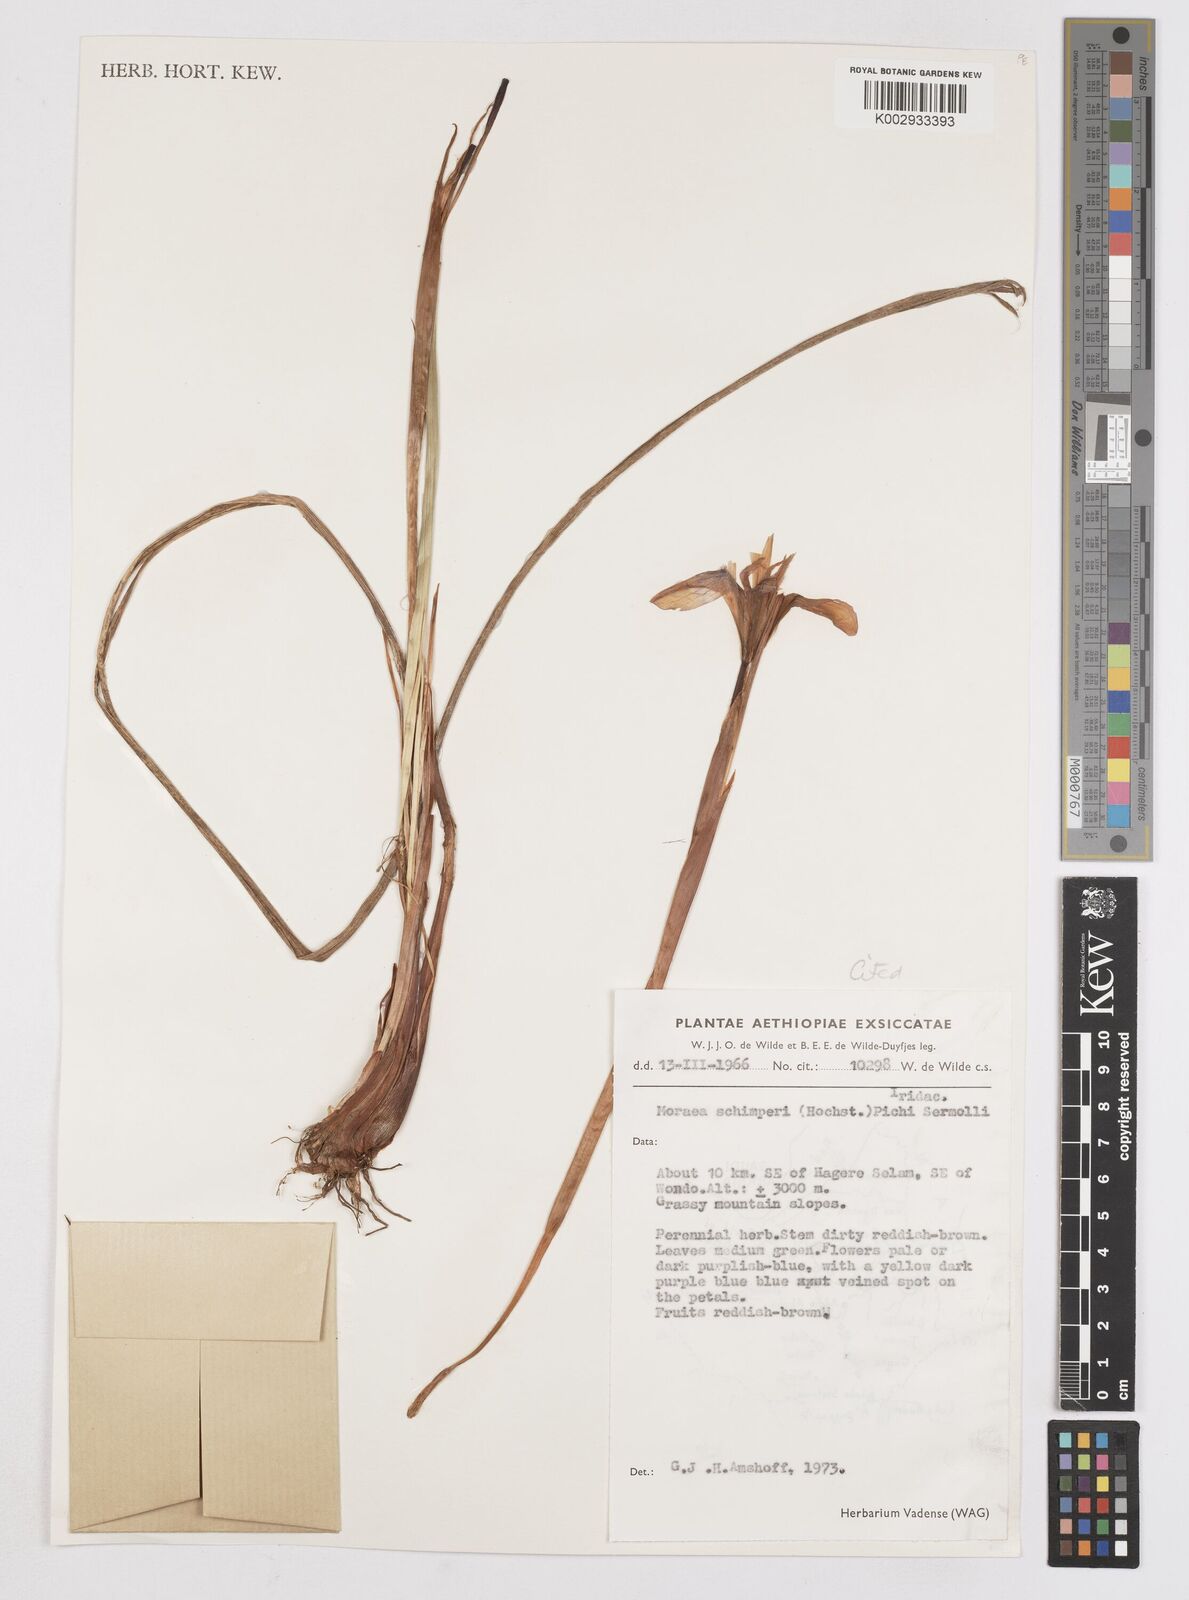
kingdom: Plantae
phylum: Tracheophyta
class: Liliopsida
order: Asparagales
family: Iridaceae
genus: Moraea
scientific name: Moraea schimperi
